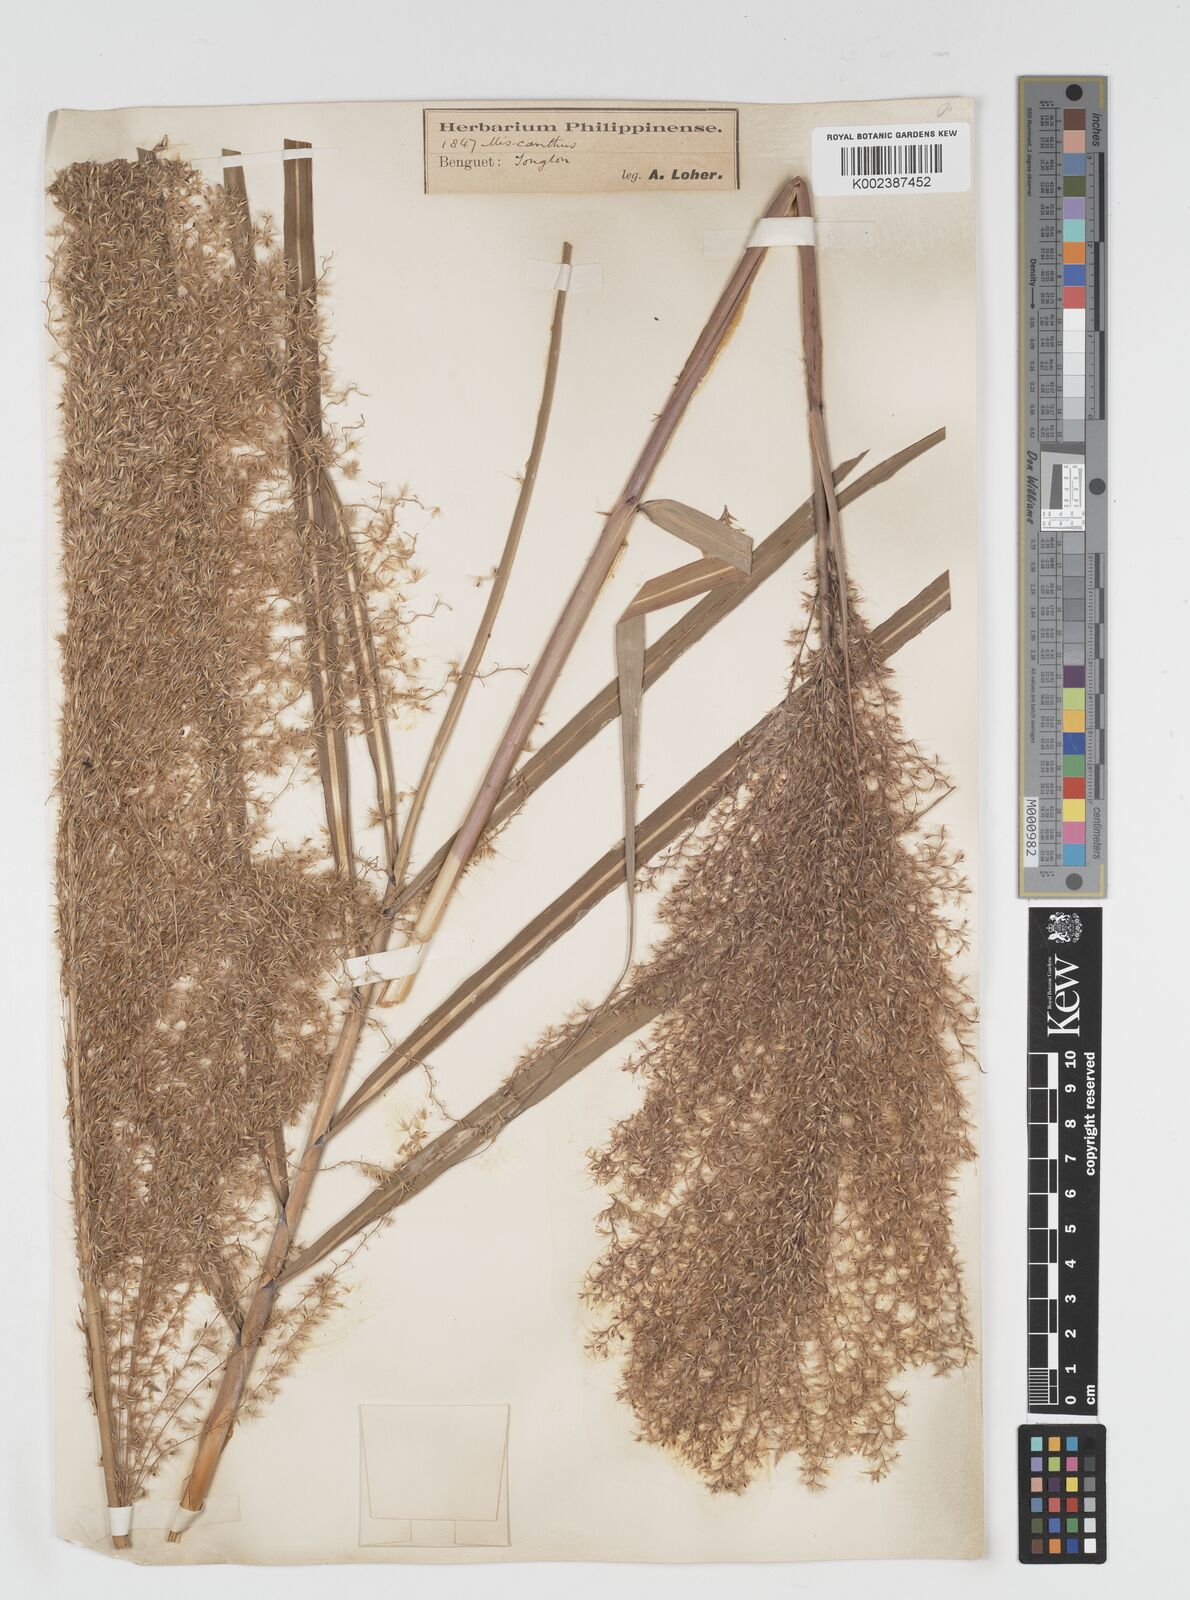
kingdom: Plantae
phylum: Tracheophyta
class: Liliopsida
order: Poales
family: Poaceae
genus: Miscanthus
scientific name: Miscanthus
